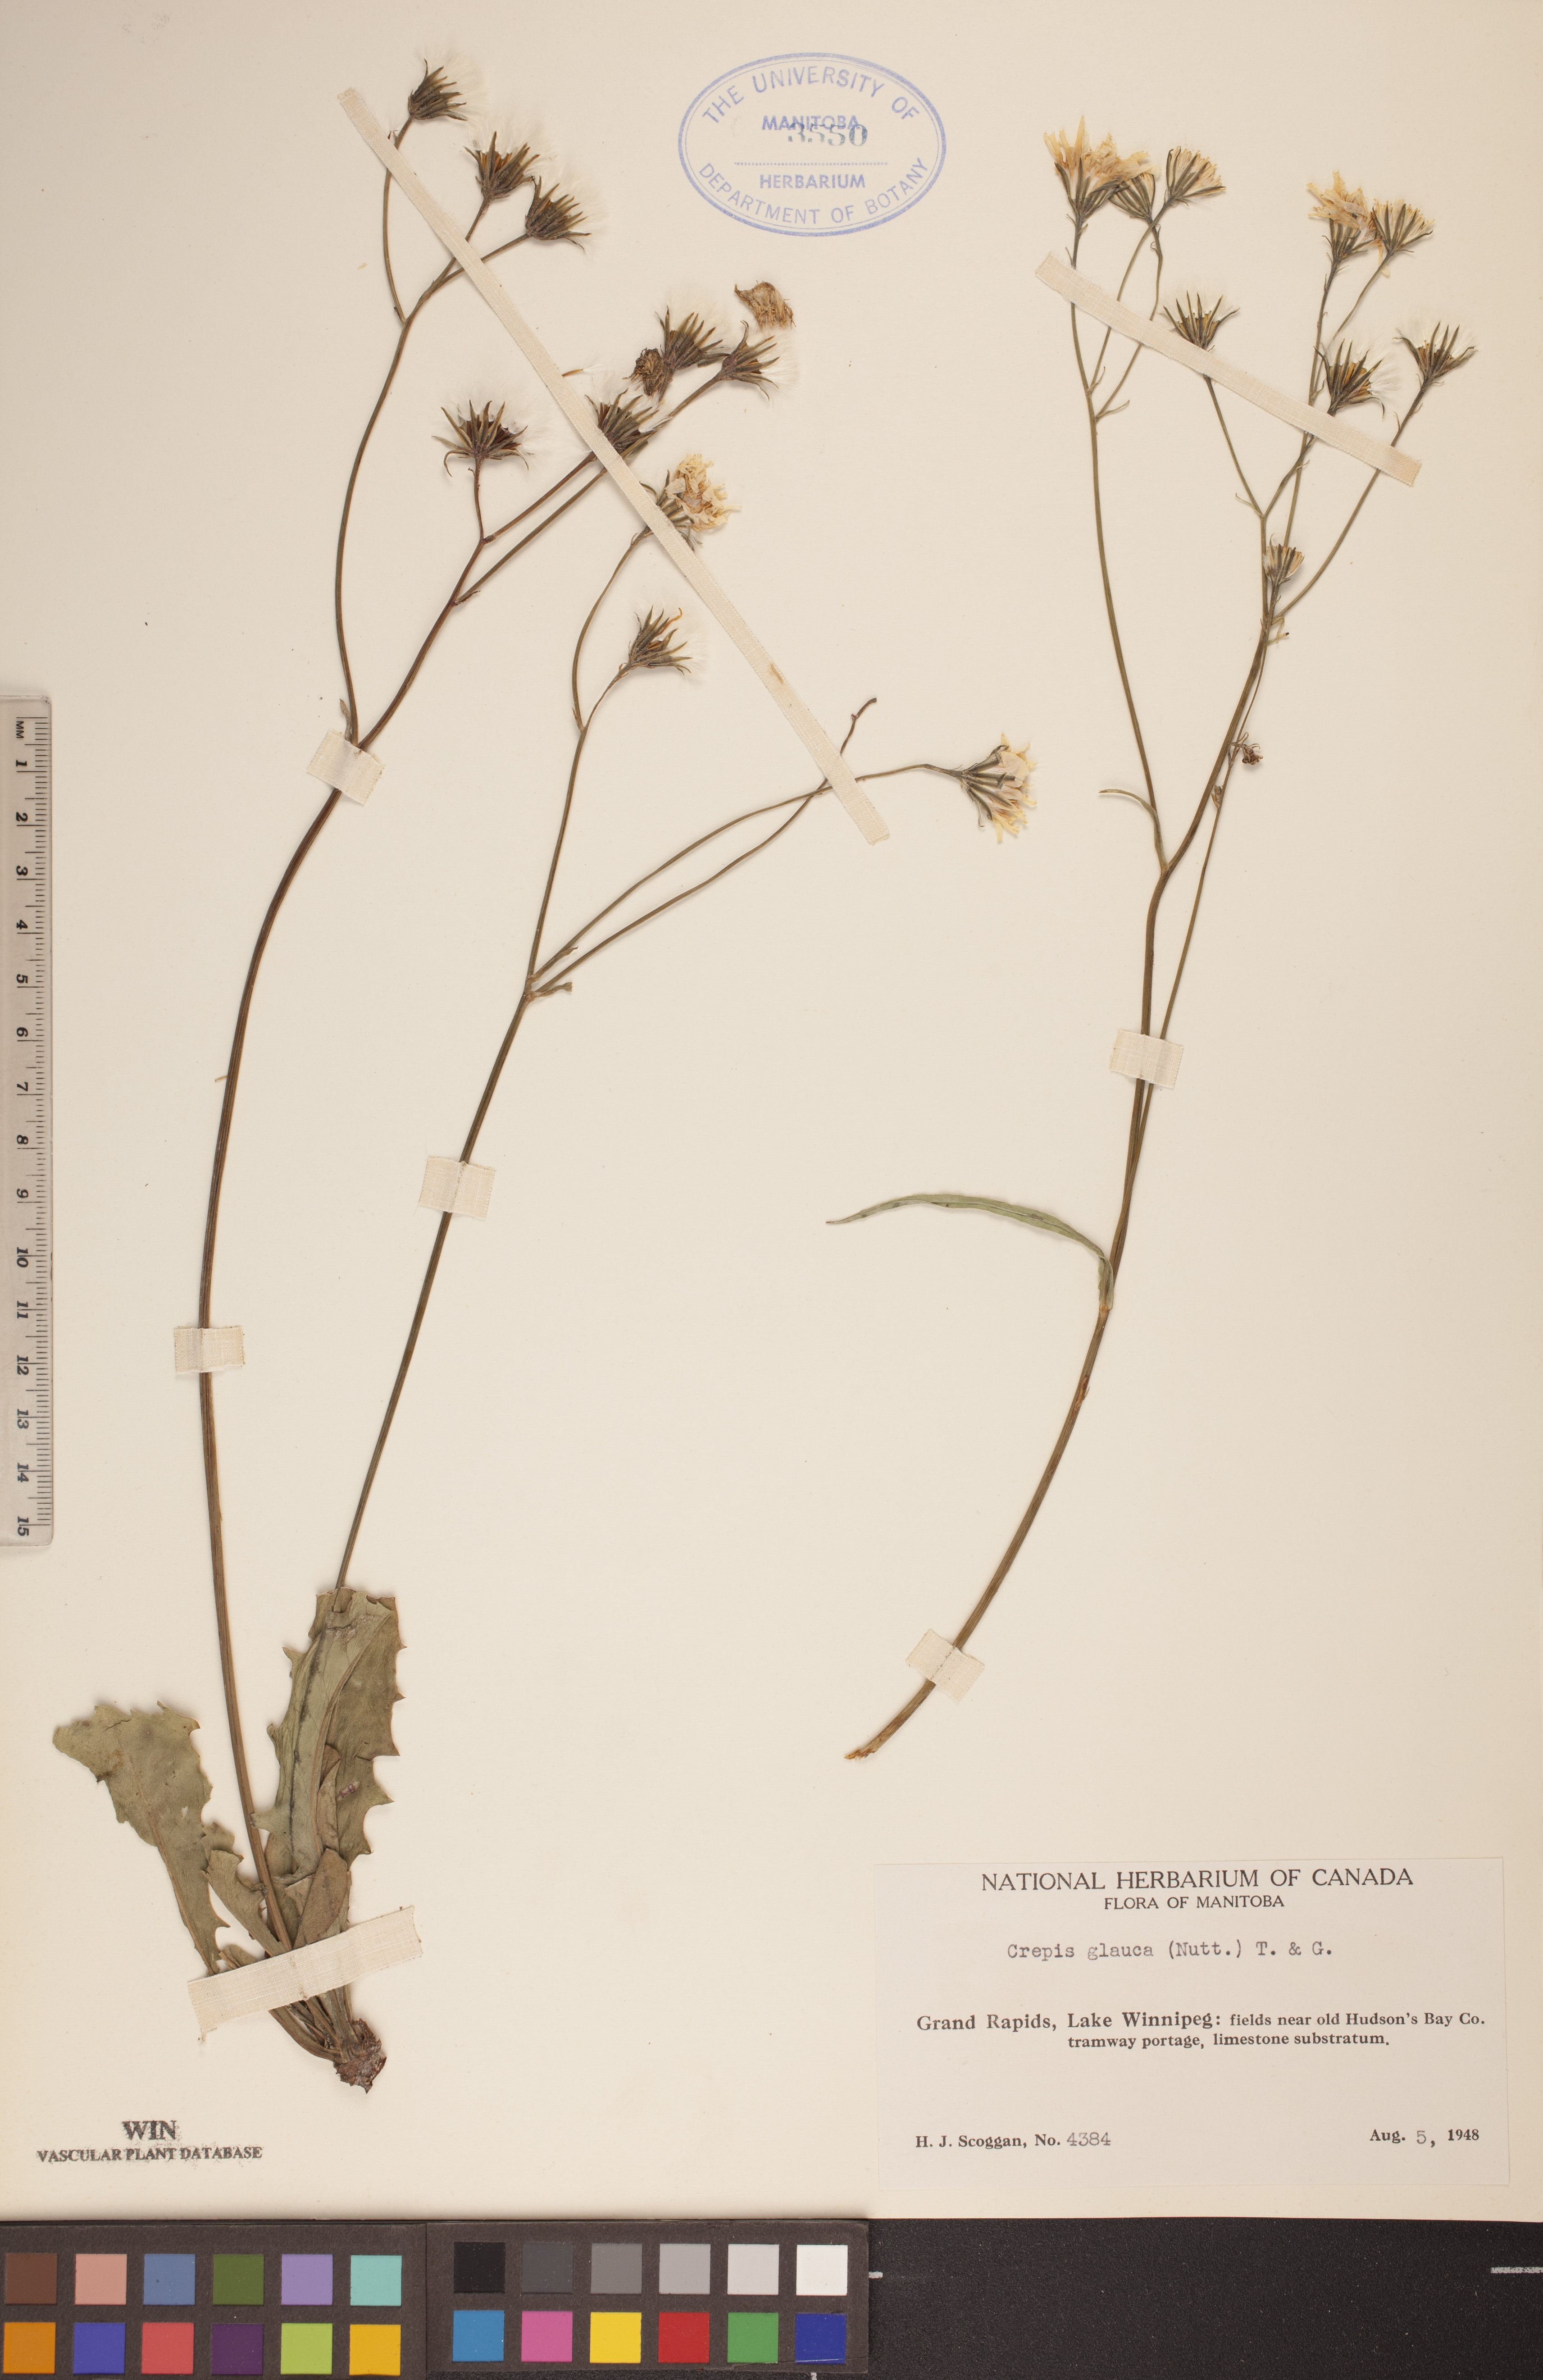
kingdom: Plantae
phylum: Tracheophyta
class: Magnoliopsida
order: Asterales
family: Asteraceae
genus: Crepis
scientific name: Crepis runcinata
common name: Dandelion hawksbeard
